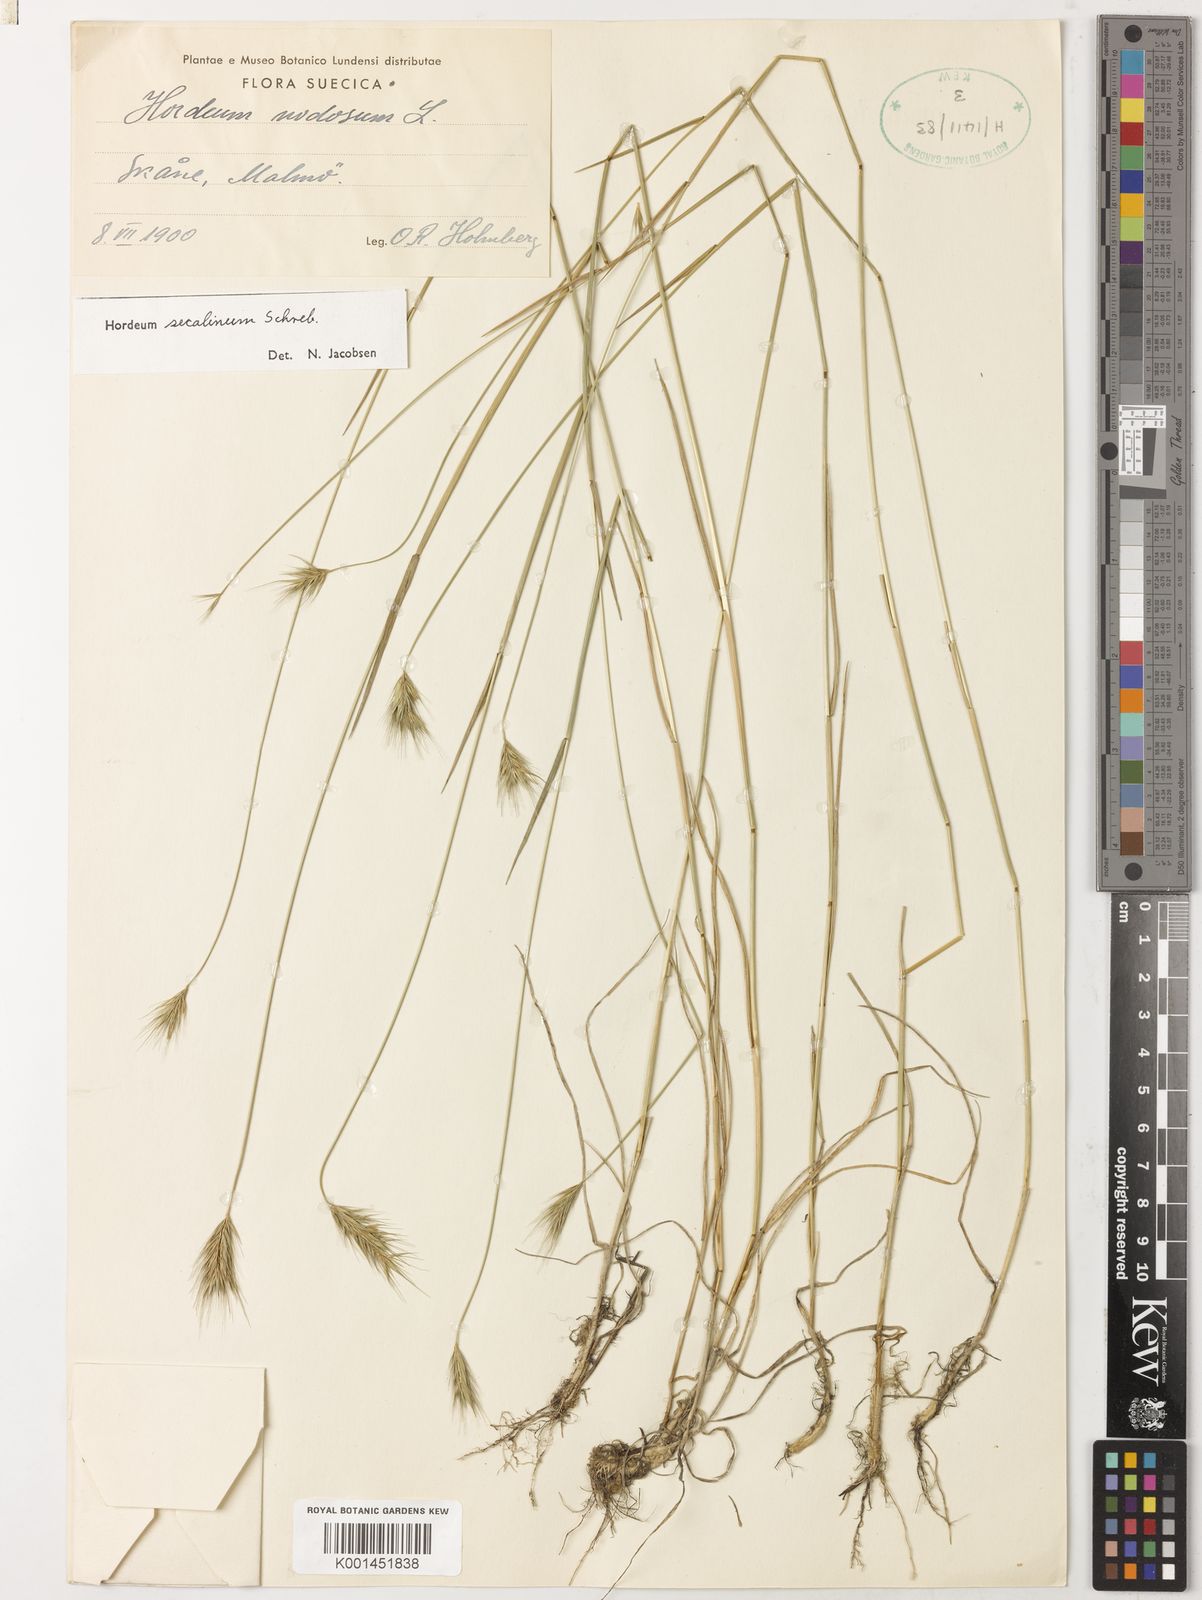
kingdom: Plantae
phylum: Tracheophyta
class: Liliopsida
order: Poales
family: Poaceae
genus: Hordeum
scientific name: Hordeum secalinum
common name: Meadow barley
